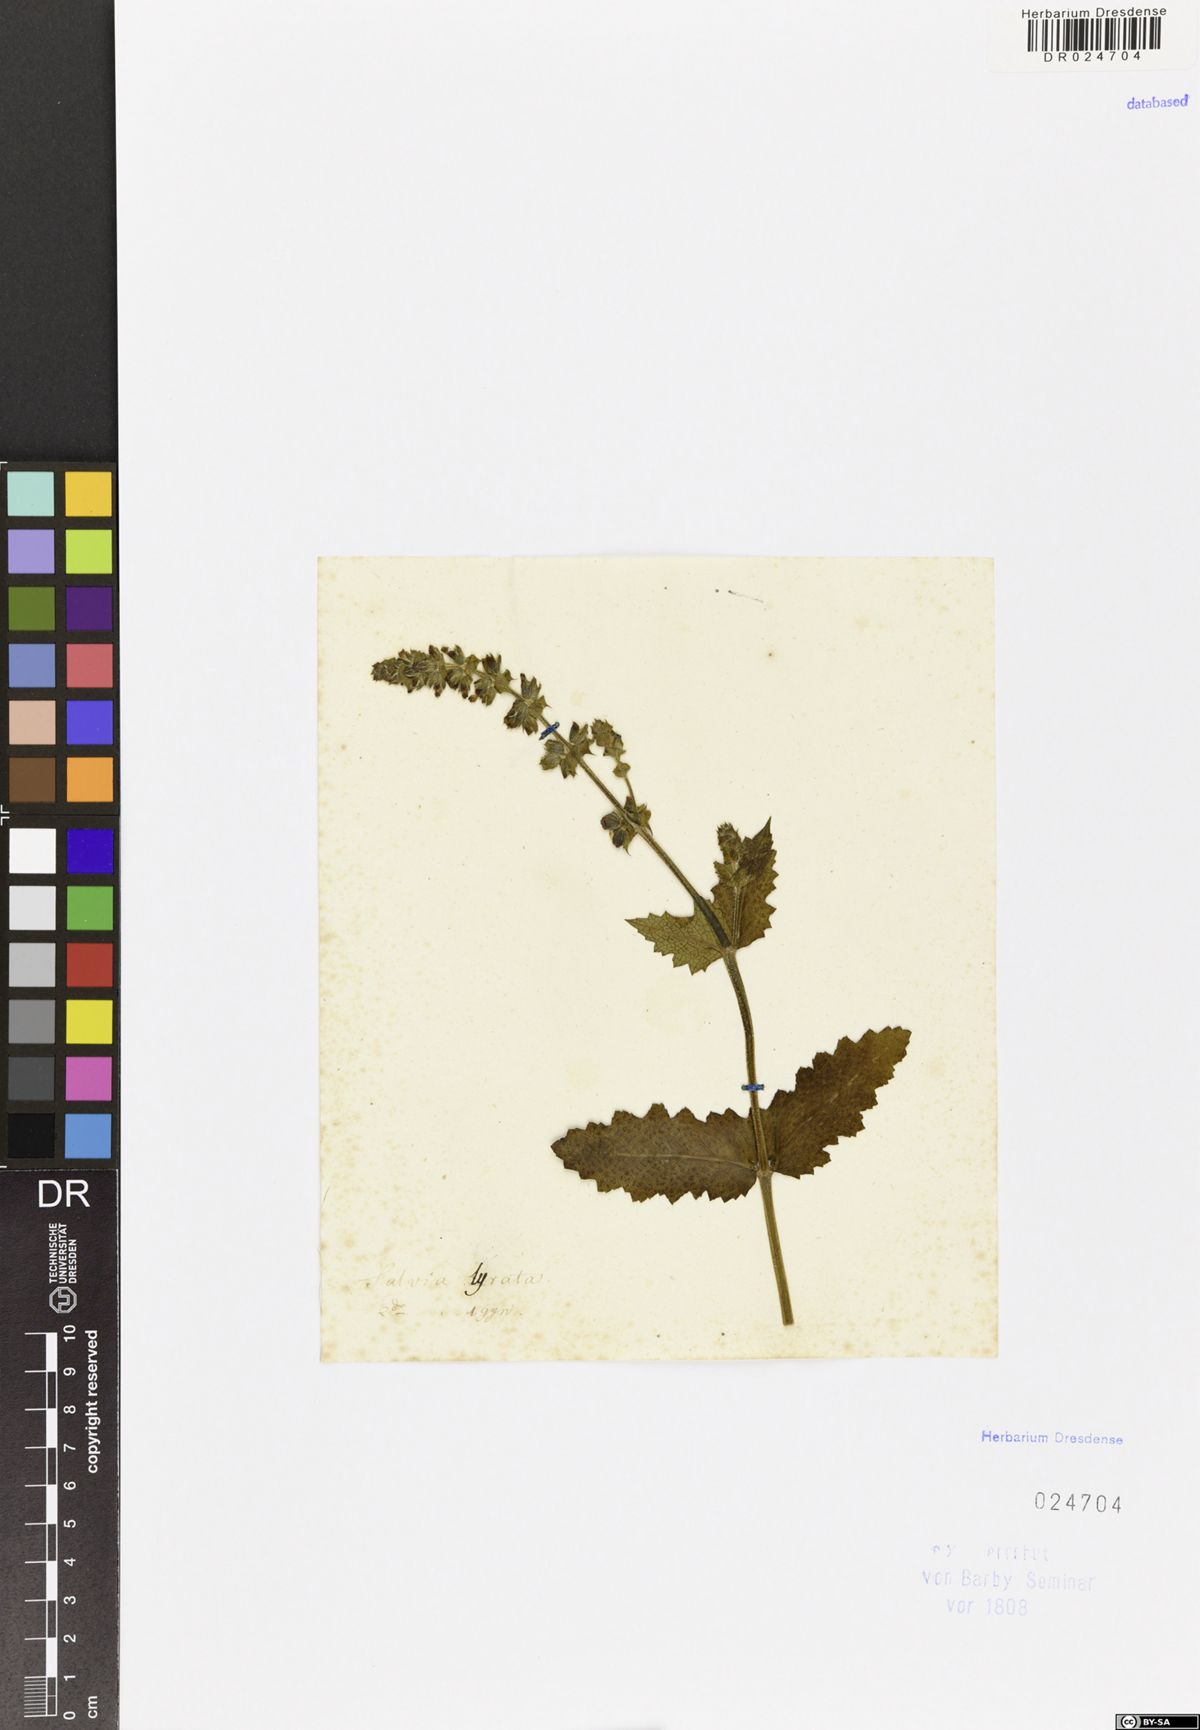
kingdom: Plantae
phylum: Tracheophyta
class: Magnoliopsida
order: Lamiales
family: Lamiaceae
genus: Salvia
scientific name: Salvia lyrata
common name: Cancerweed
